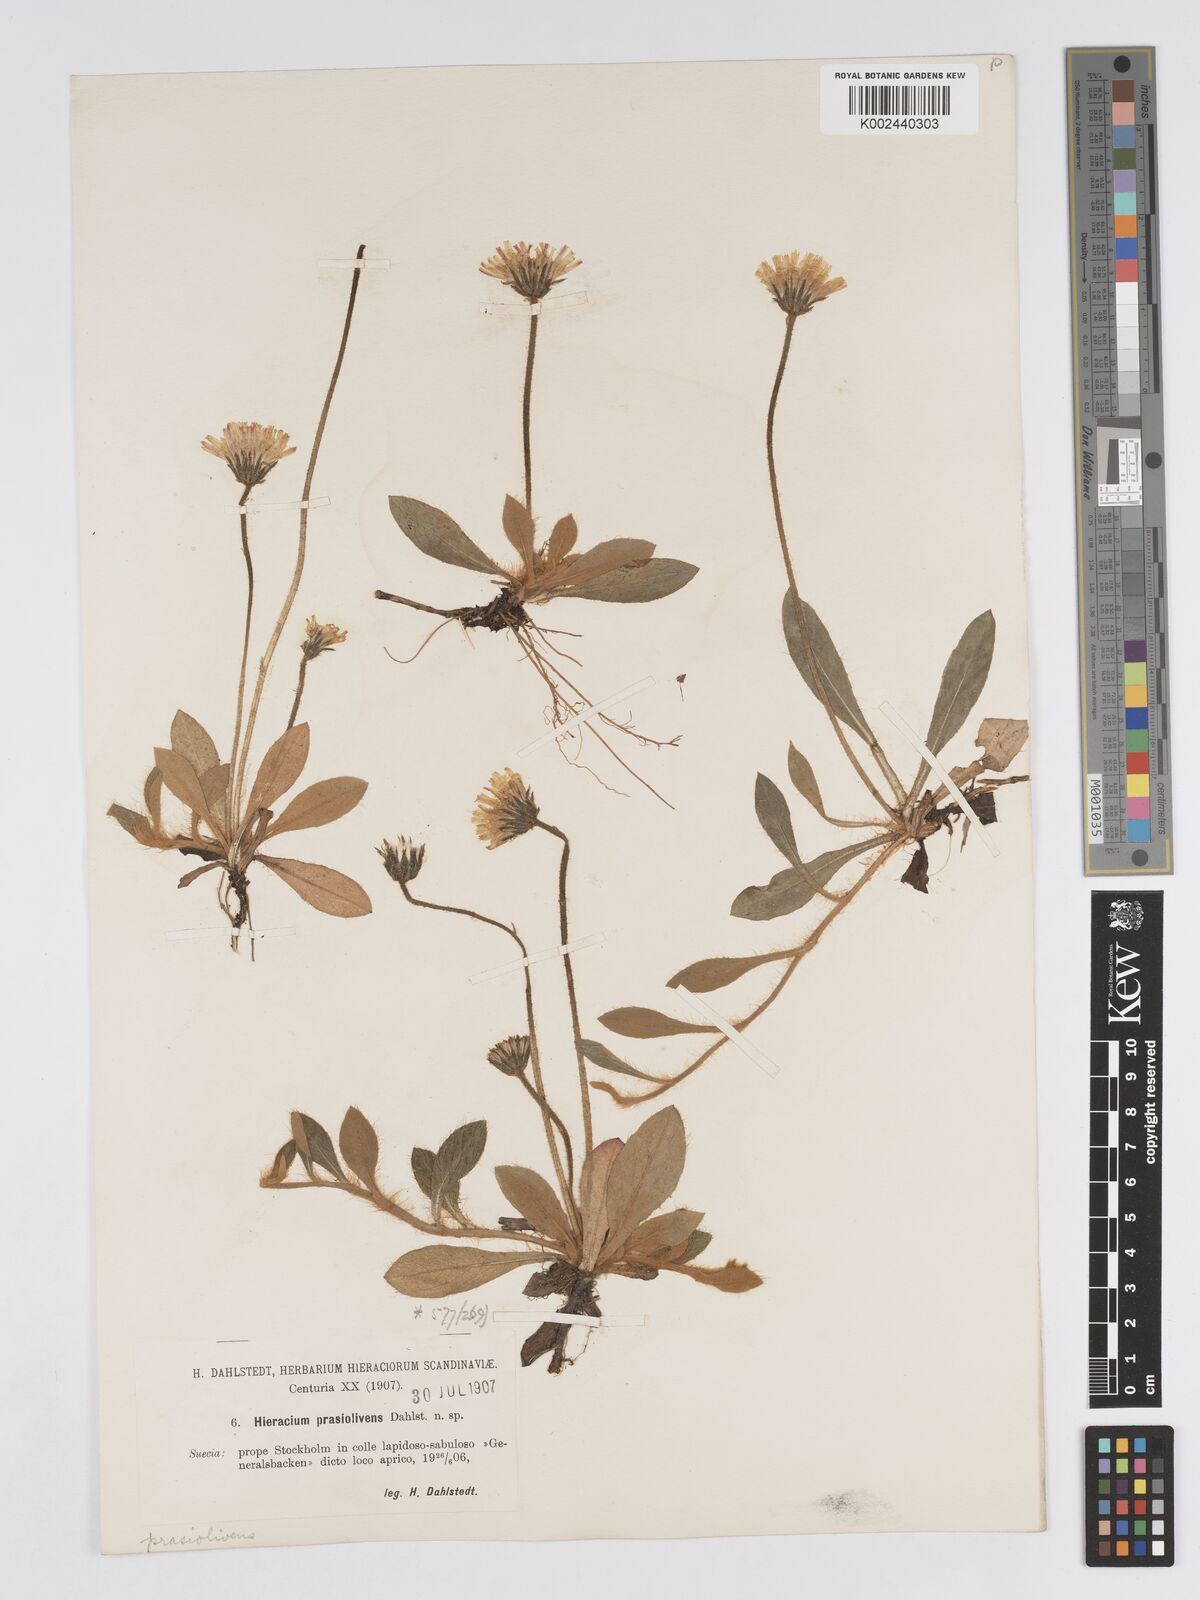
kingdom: Plantae
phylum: Tracheophyta
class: Magnoliopsida
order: Asterales
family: Asteraceae
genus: Pilosella
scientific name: Pilosella officinarum
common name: Mouse-ear hawkweed
